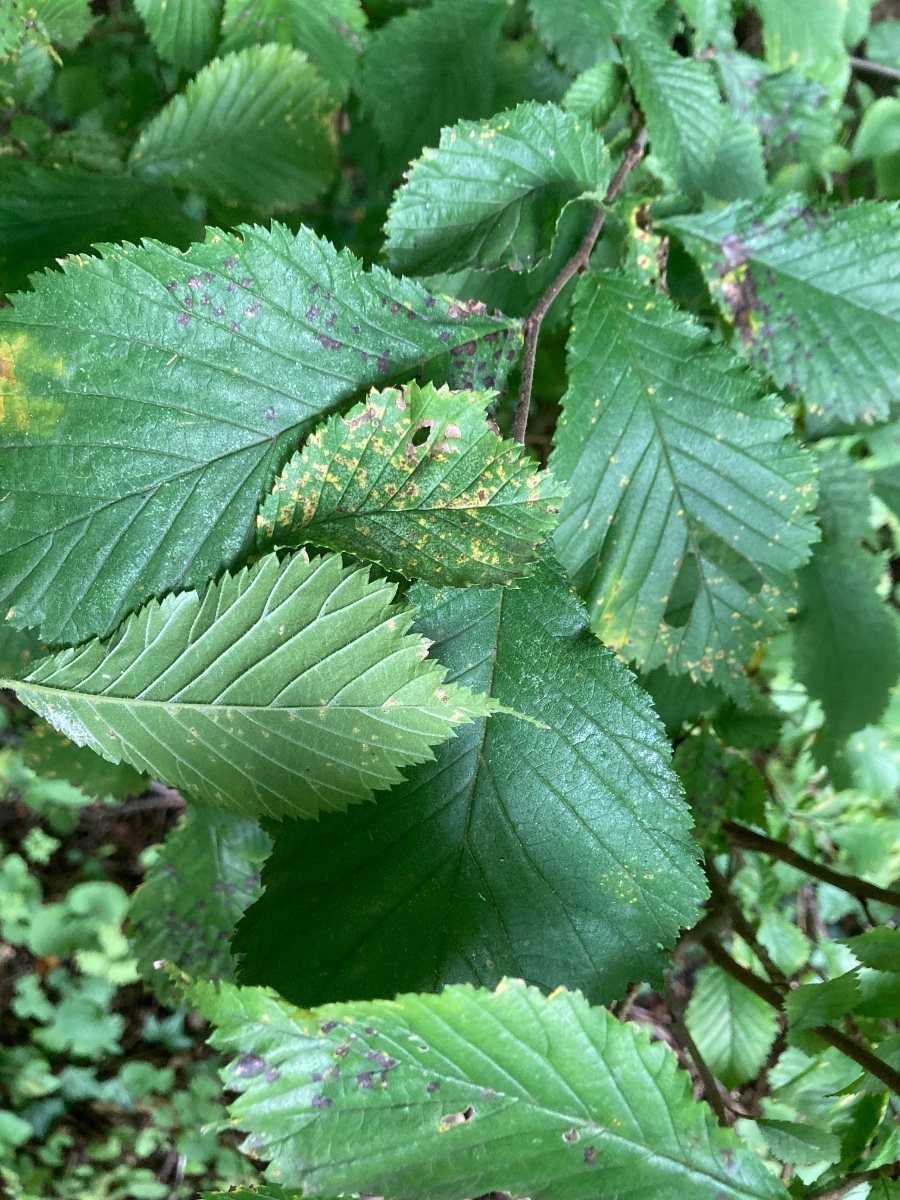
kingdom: Fungi
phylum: Ascomycota
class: Dothideomycetes
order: Mycosphaerellales
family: Mycosphaerellaceae
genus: Mycosphaerella
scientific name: Mycosphaerella ulmi
